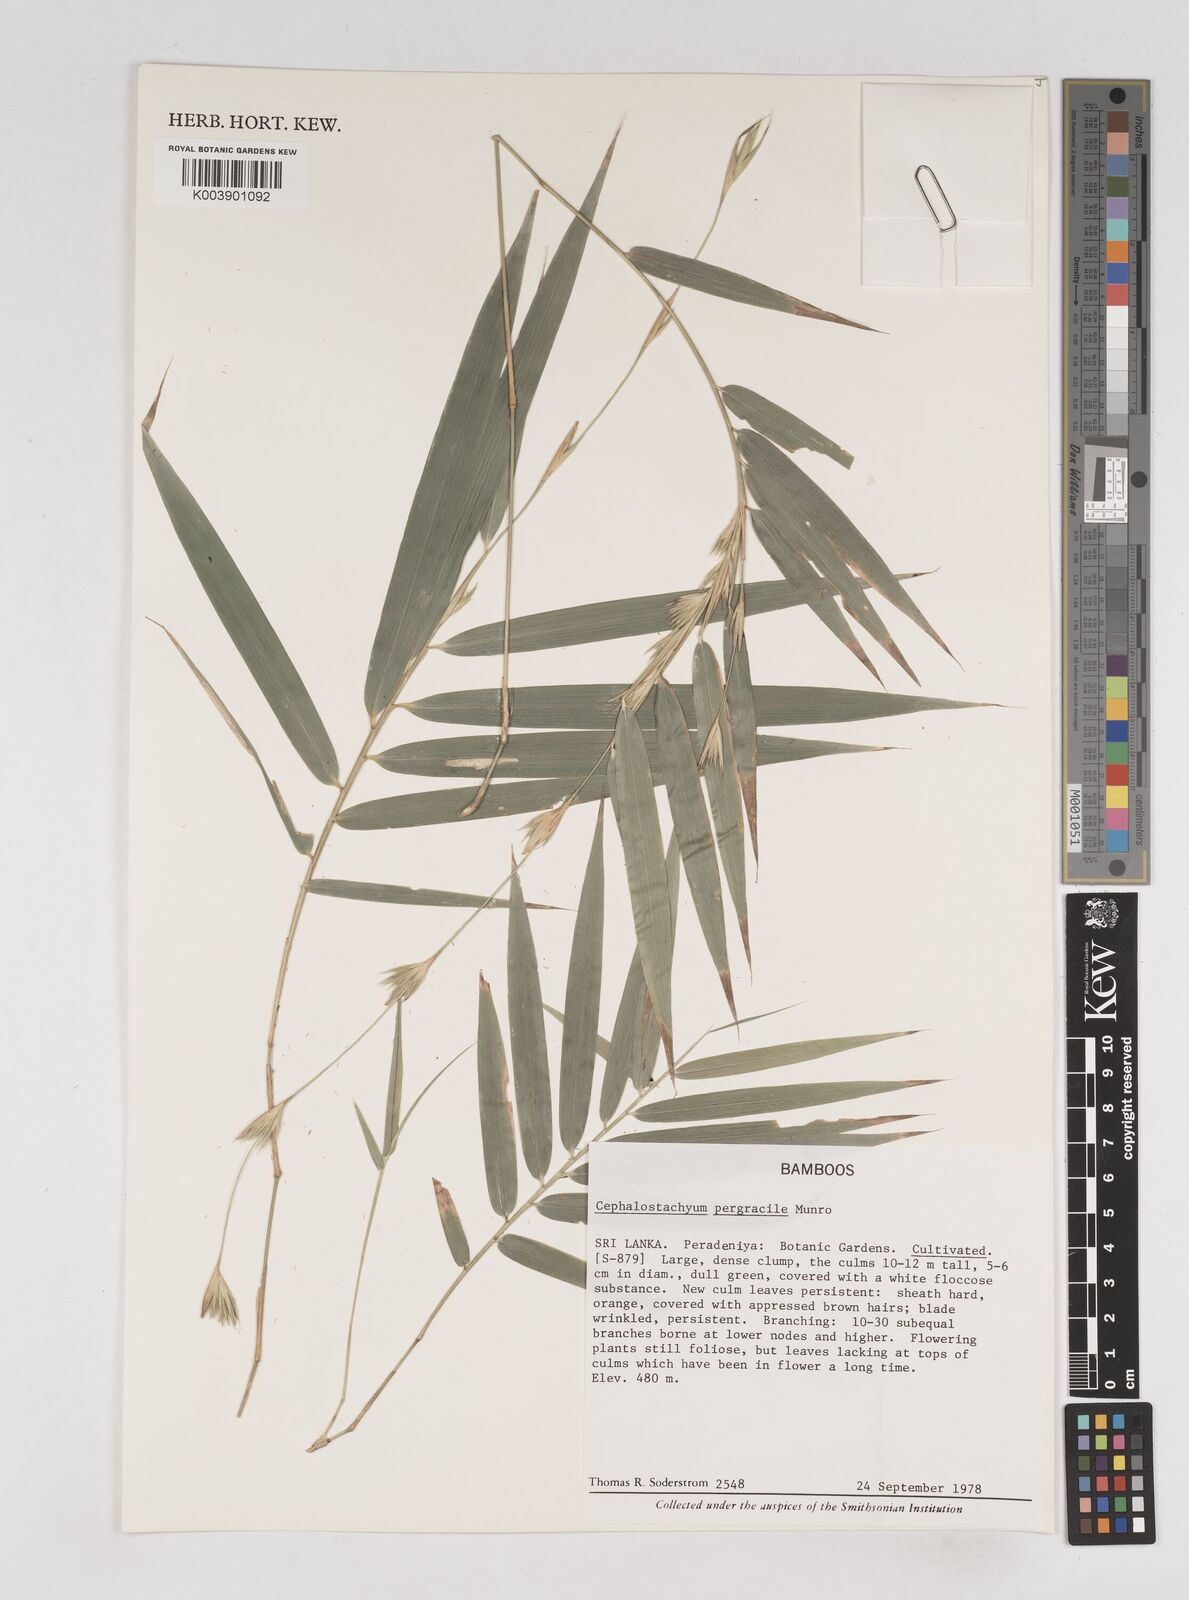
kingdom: Plantae
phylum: Tracheophyta
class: Liliopsida
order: Poales
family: Poaceae
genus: Cephalostachyum
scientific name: Cephalostachyum
